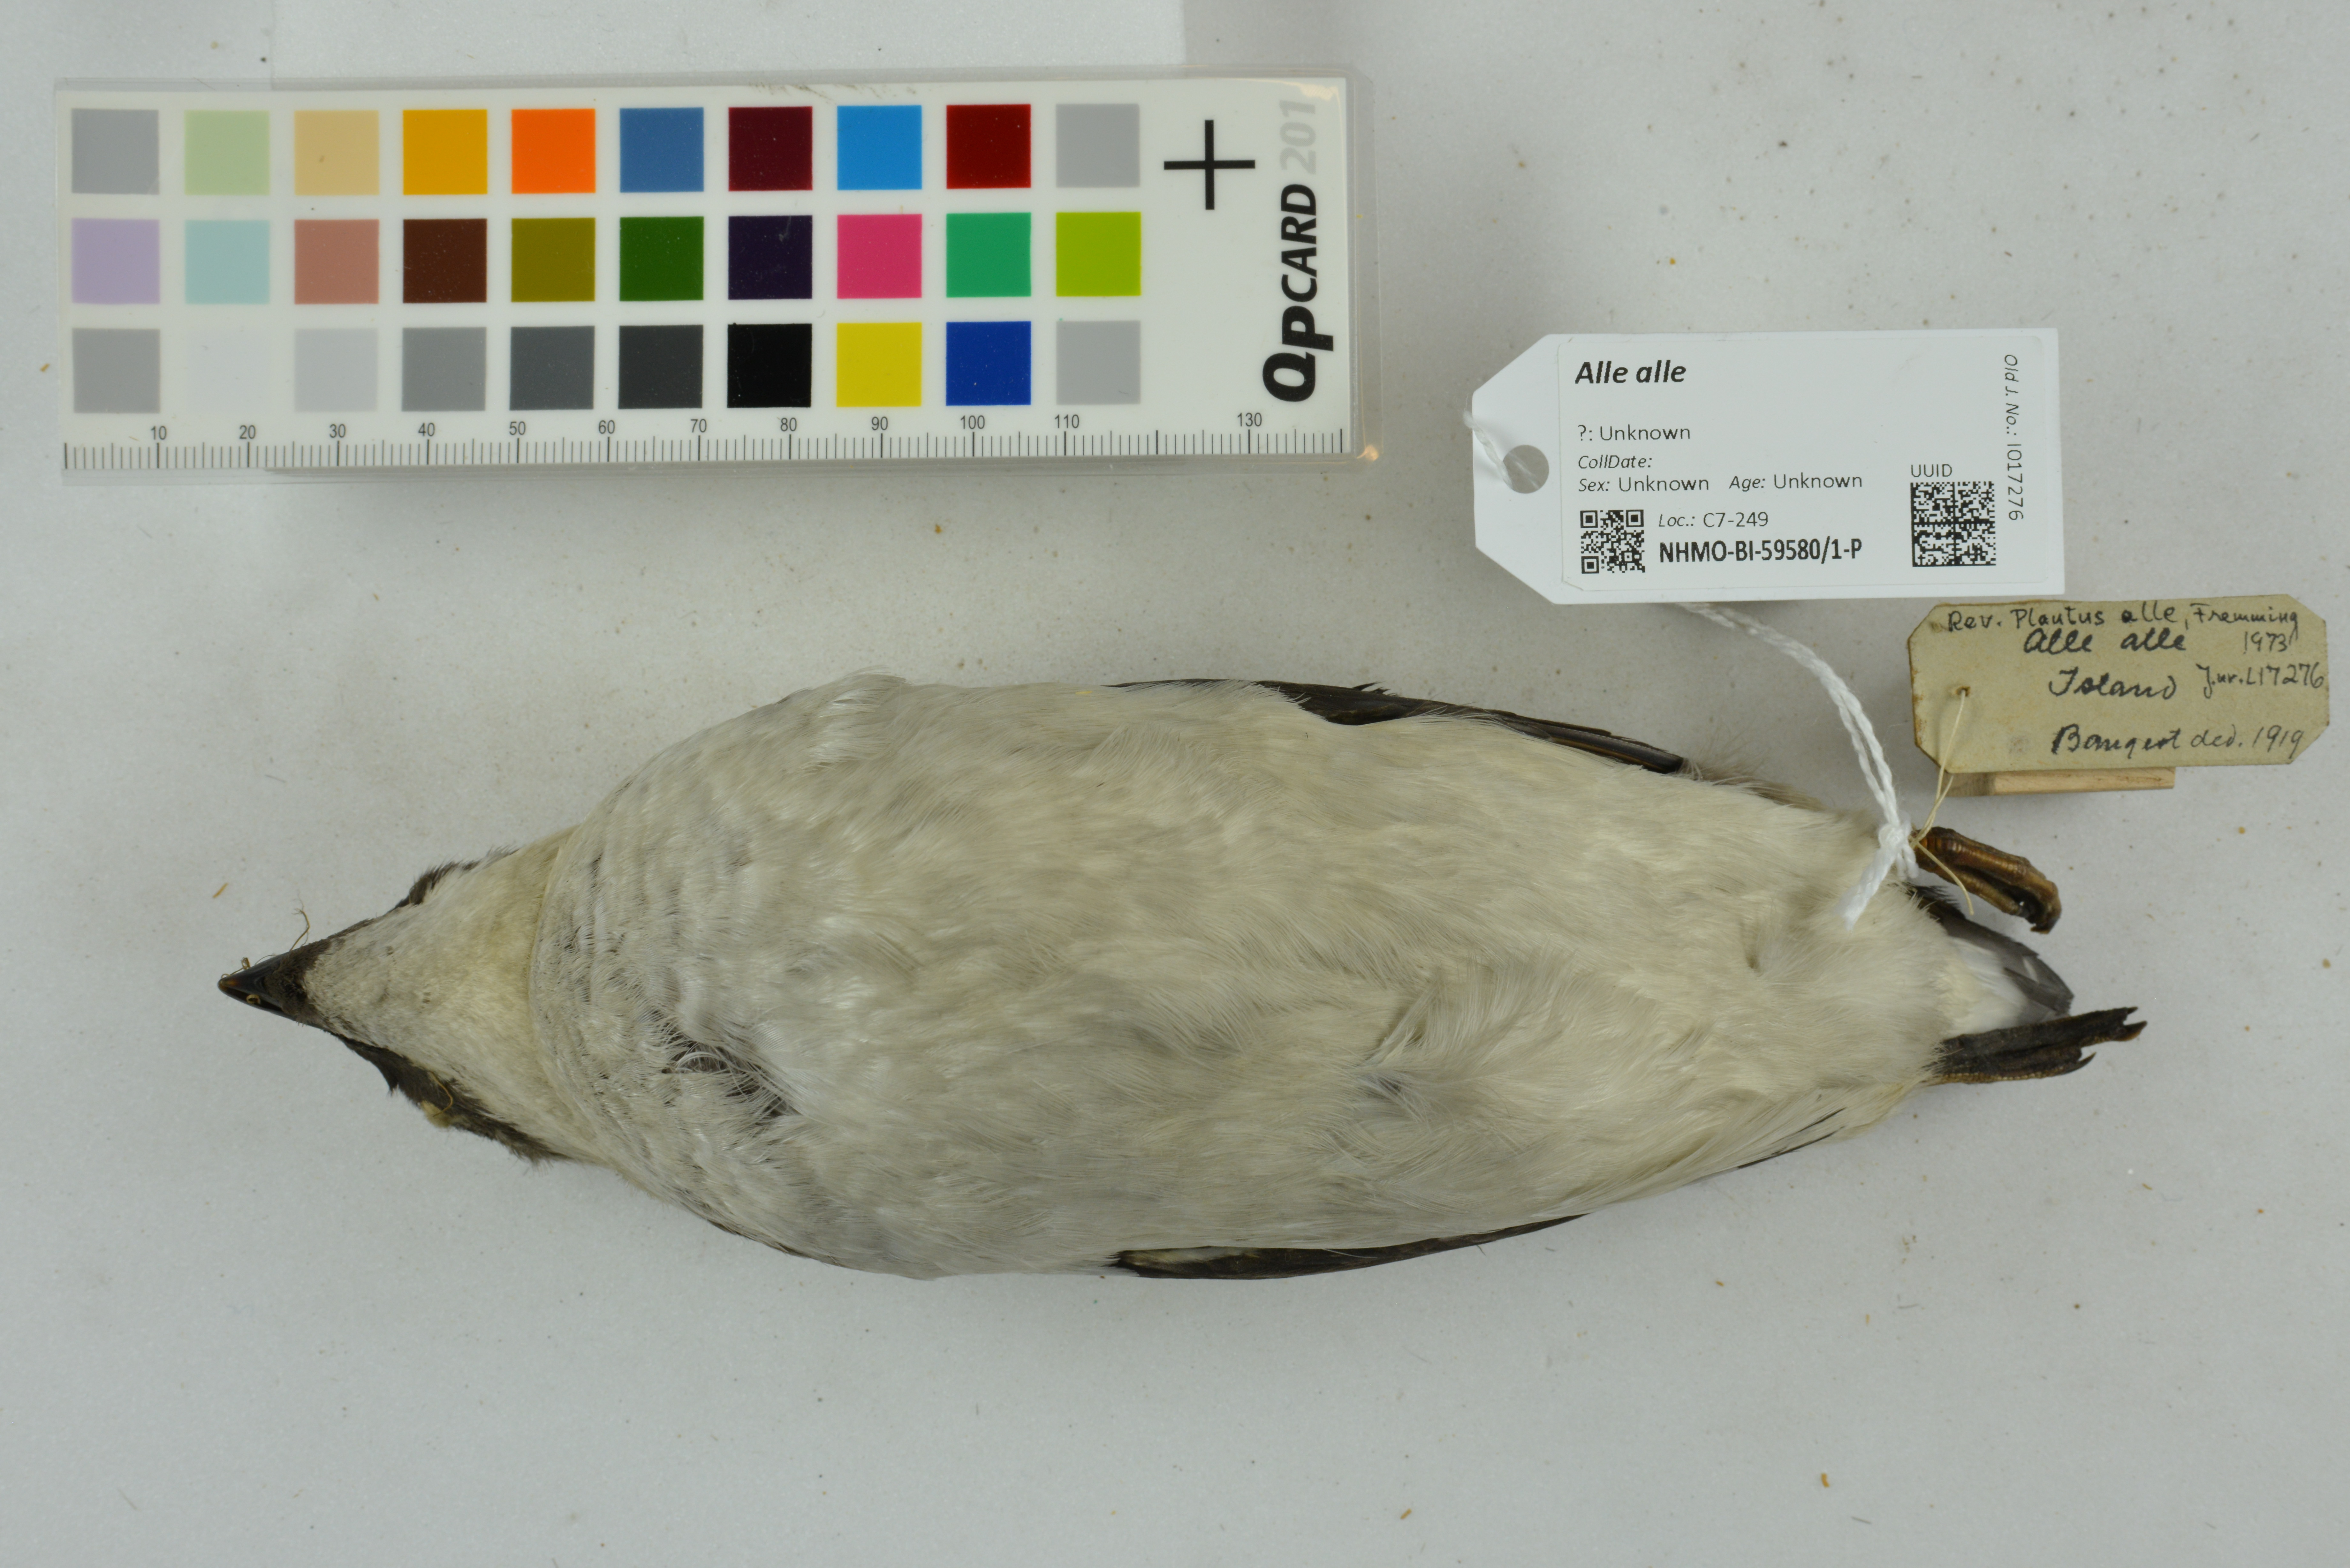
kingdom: Animalia
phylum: Chordata
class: Aves
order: Charadriiformes
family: Alcidae
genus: Alle
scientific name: Alle alle
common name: Little auk
